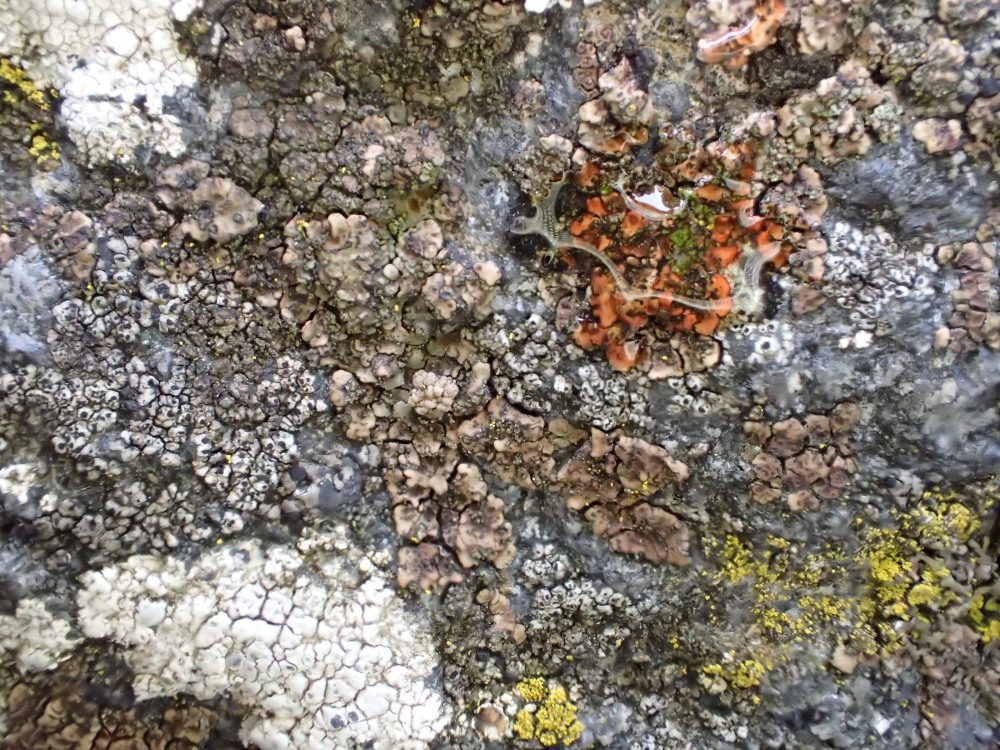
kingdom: Fungi
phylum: Ascomycota
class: Lecanoromycetes
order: Acarosporales
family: Acarosporaceae
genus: Acarospora
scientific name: Acarospora fuscata
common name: brun småsporelav
